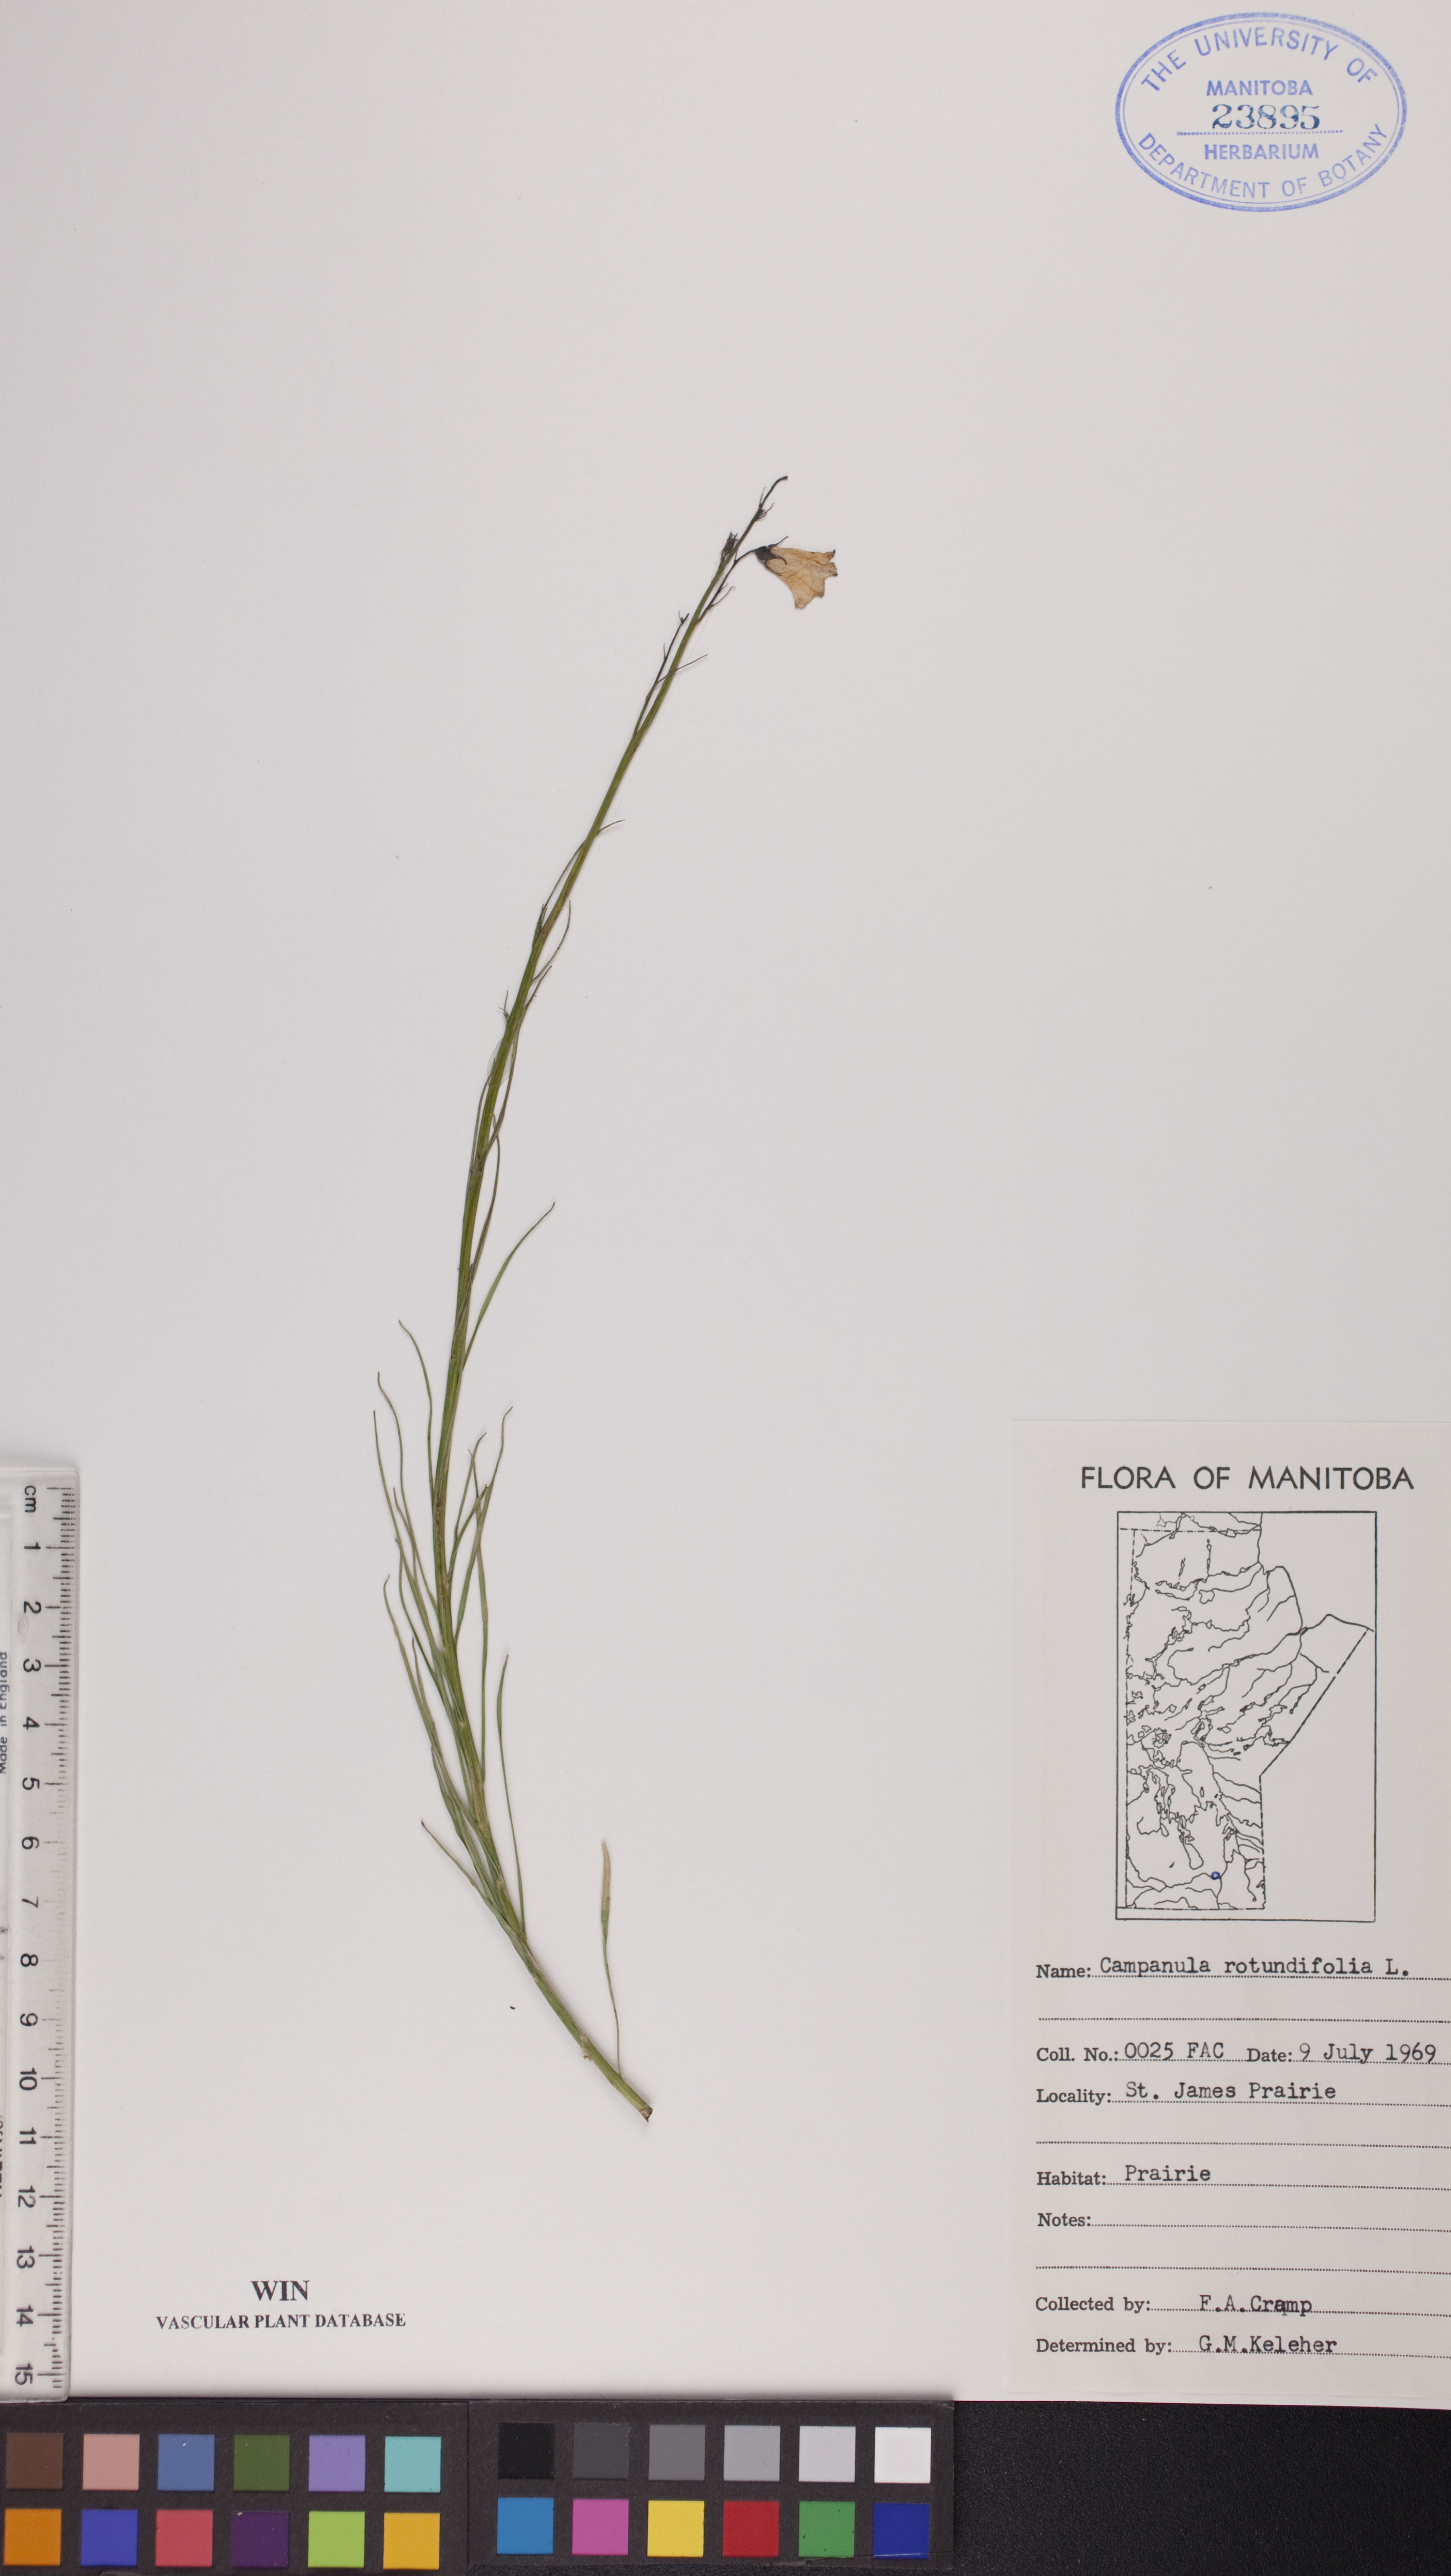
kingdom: Plantae
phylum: Tracheophyta
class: Magnoliopsida
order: Asterales
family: Campanulaceae
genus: Campanula
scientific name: Campanula rotundifolia
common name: Harebell
